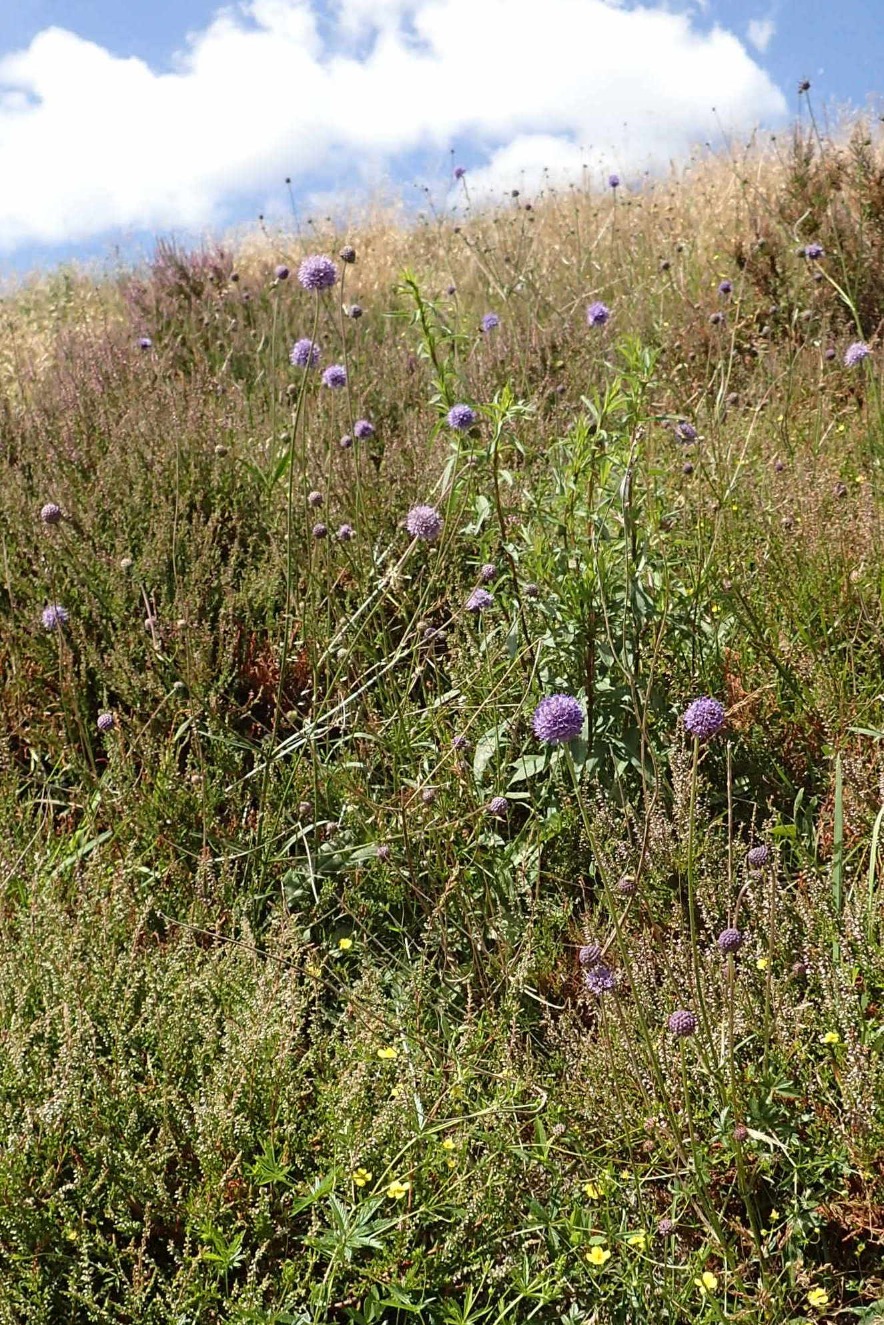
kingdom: Plantae
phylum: Tracheophyta
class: Magnoliopsida
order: Dipsacales
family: Caprifoliaceae
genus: Succisa
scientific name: Succisa pratensis
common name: Djævelsbid
